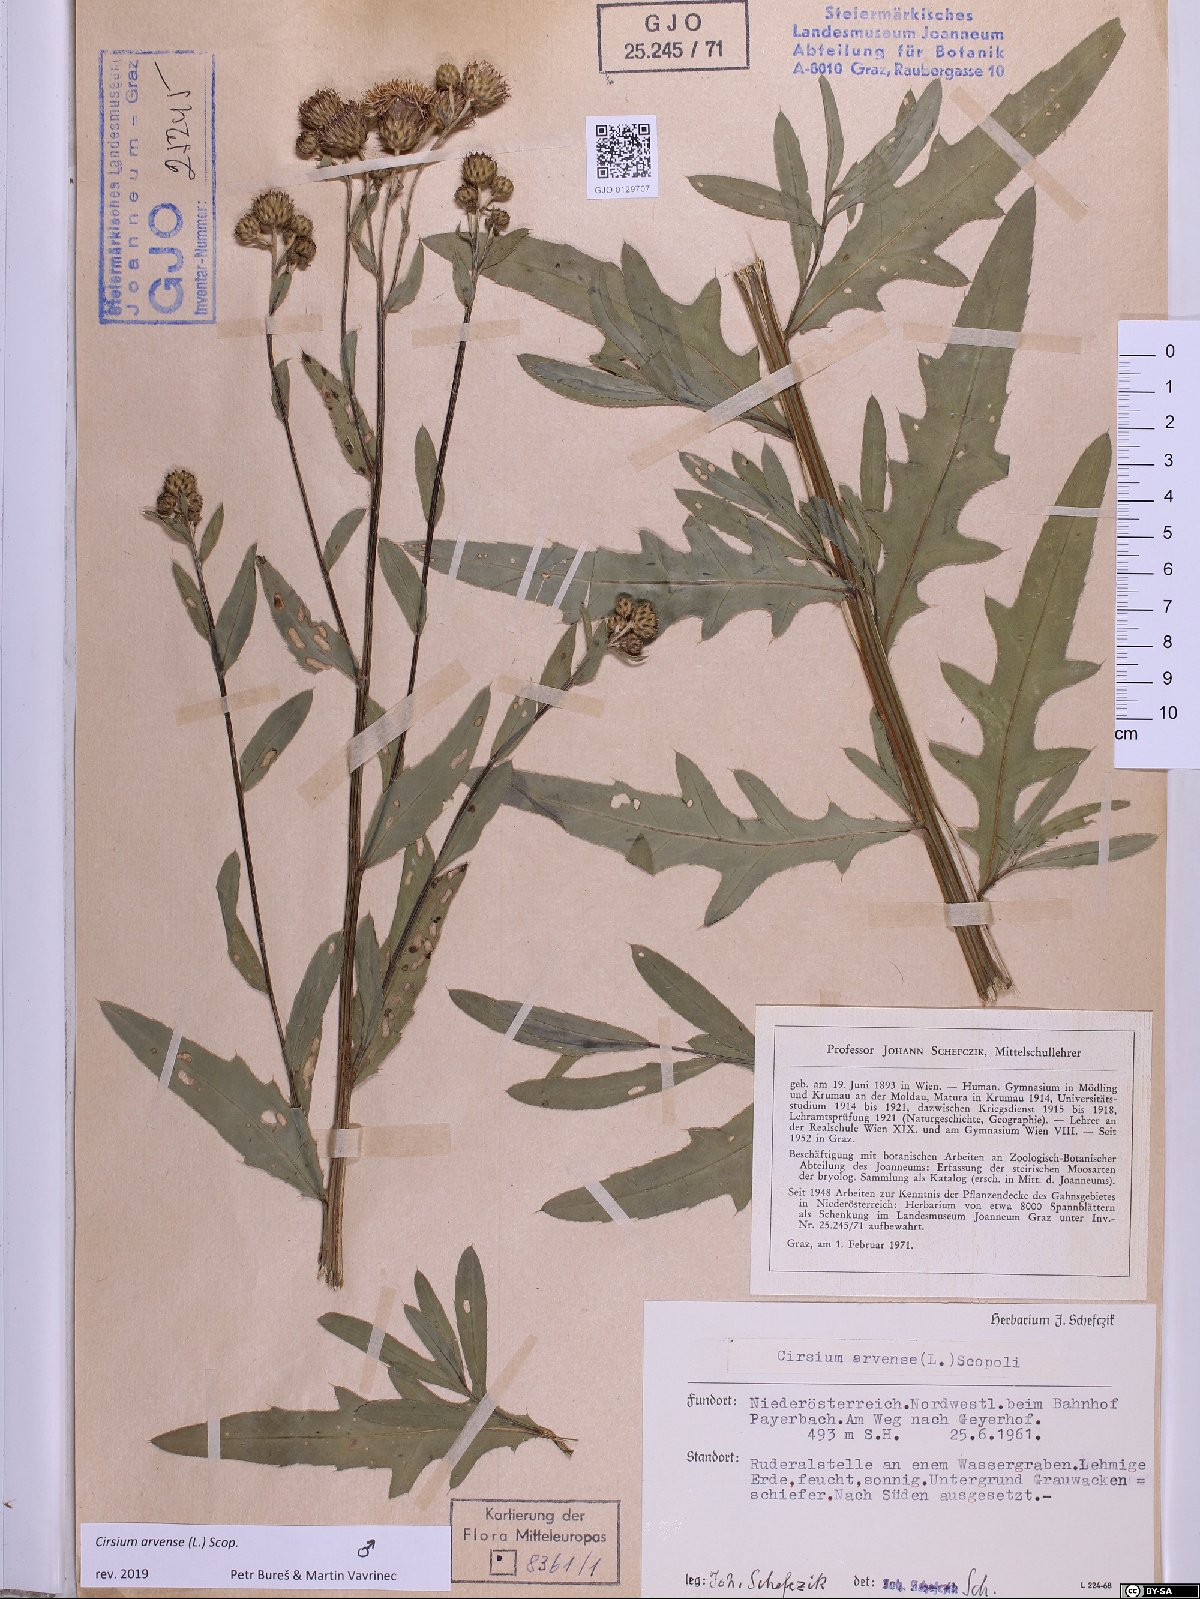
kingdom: Plantae
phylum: Tracheophyta
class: Magnoliopsida
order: Asterales
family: Asteraceae
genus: Cirsium
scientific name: Cirsium arvense
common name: Creeping thistle
